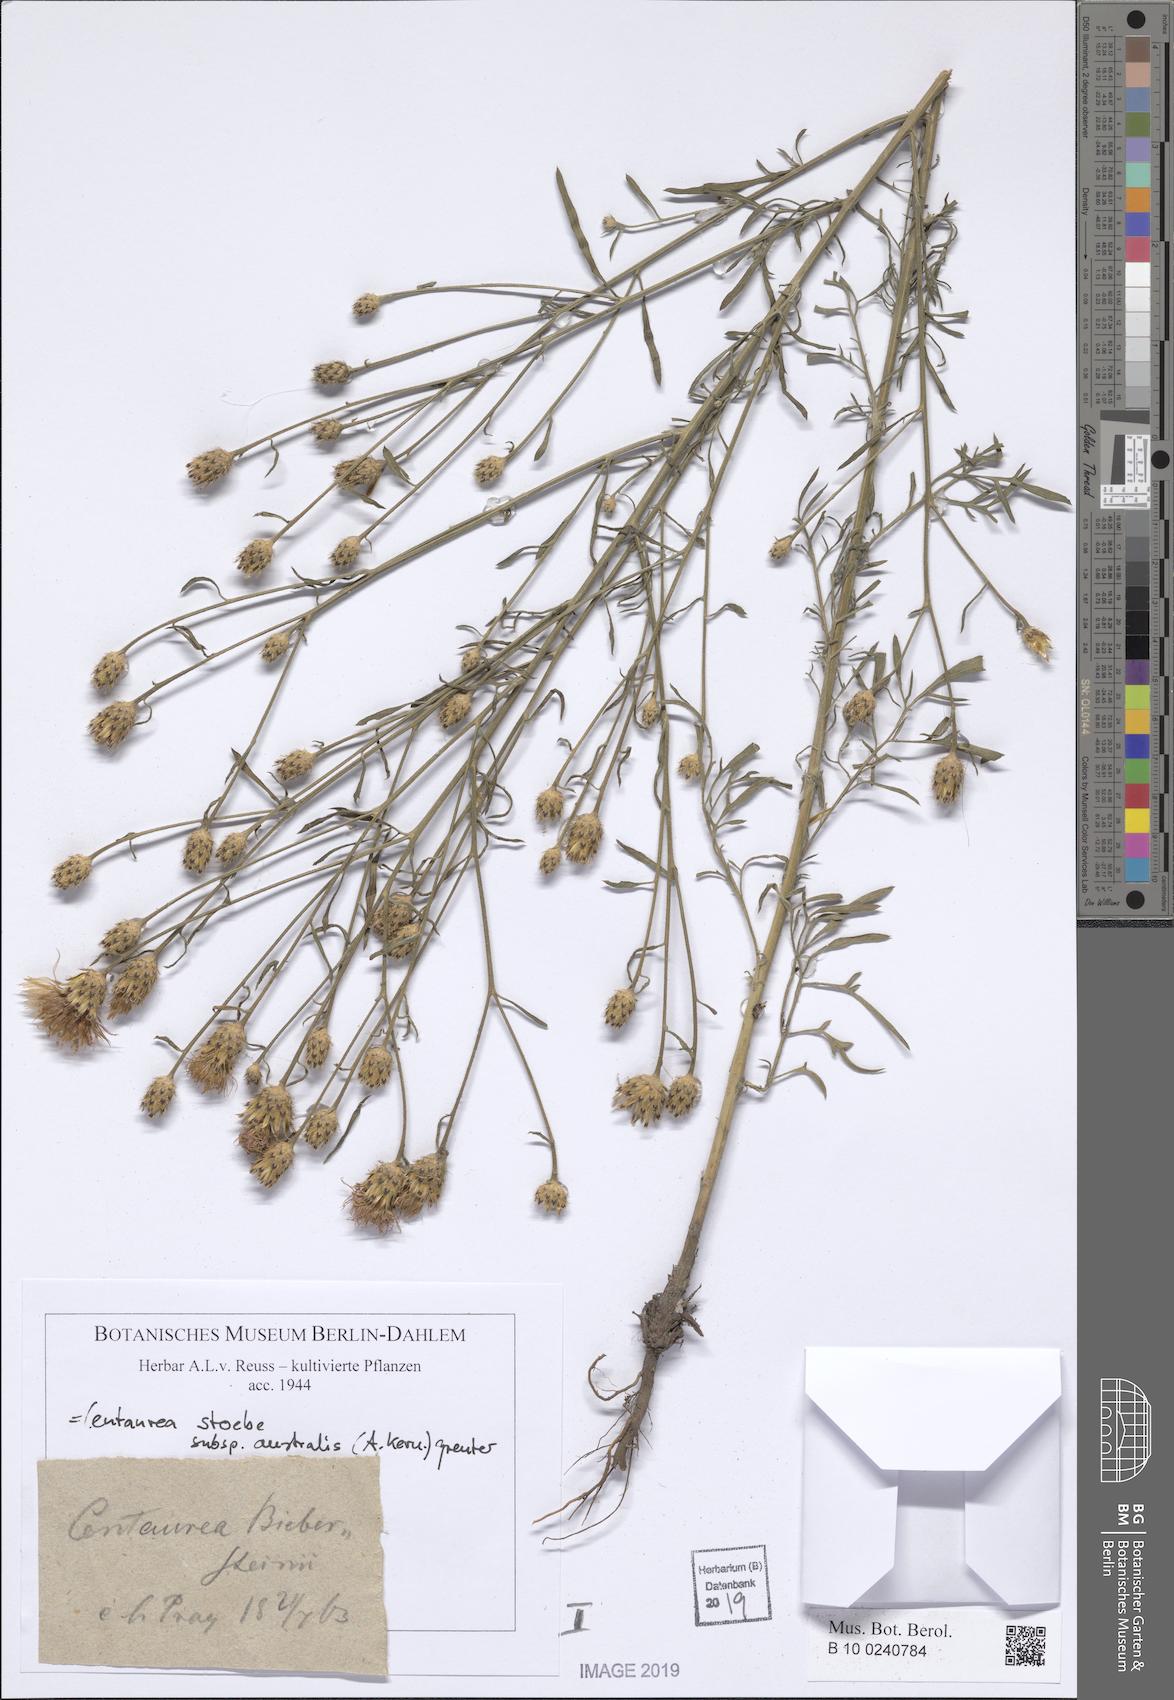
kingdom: Plantae
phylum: Tracheophyta
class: Magnoliopsida
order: Asterales
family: Asteraceae
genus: Centaurea
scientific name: Centaurea australis
